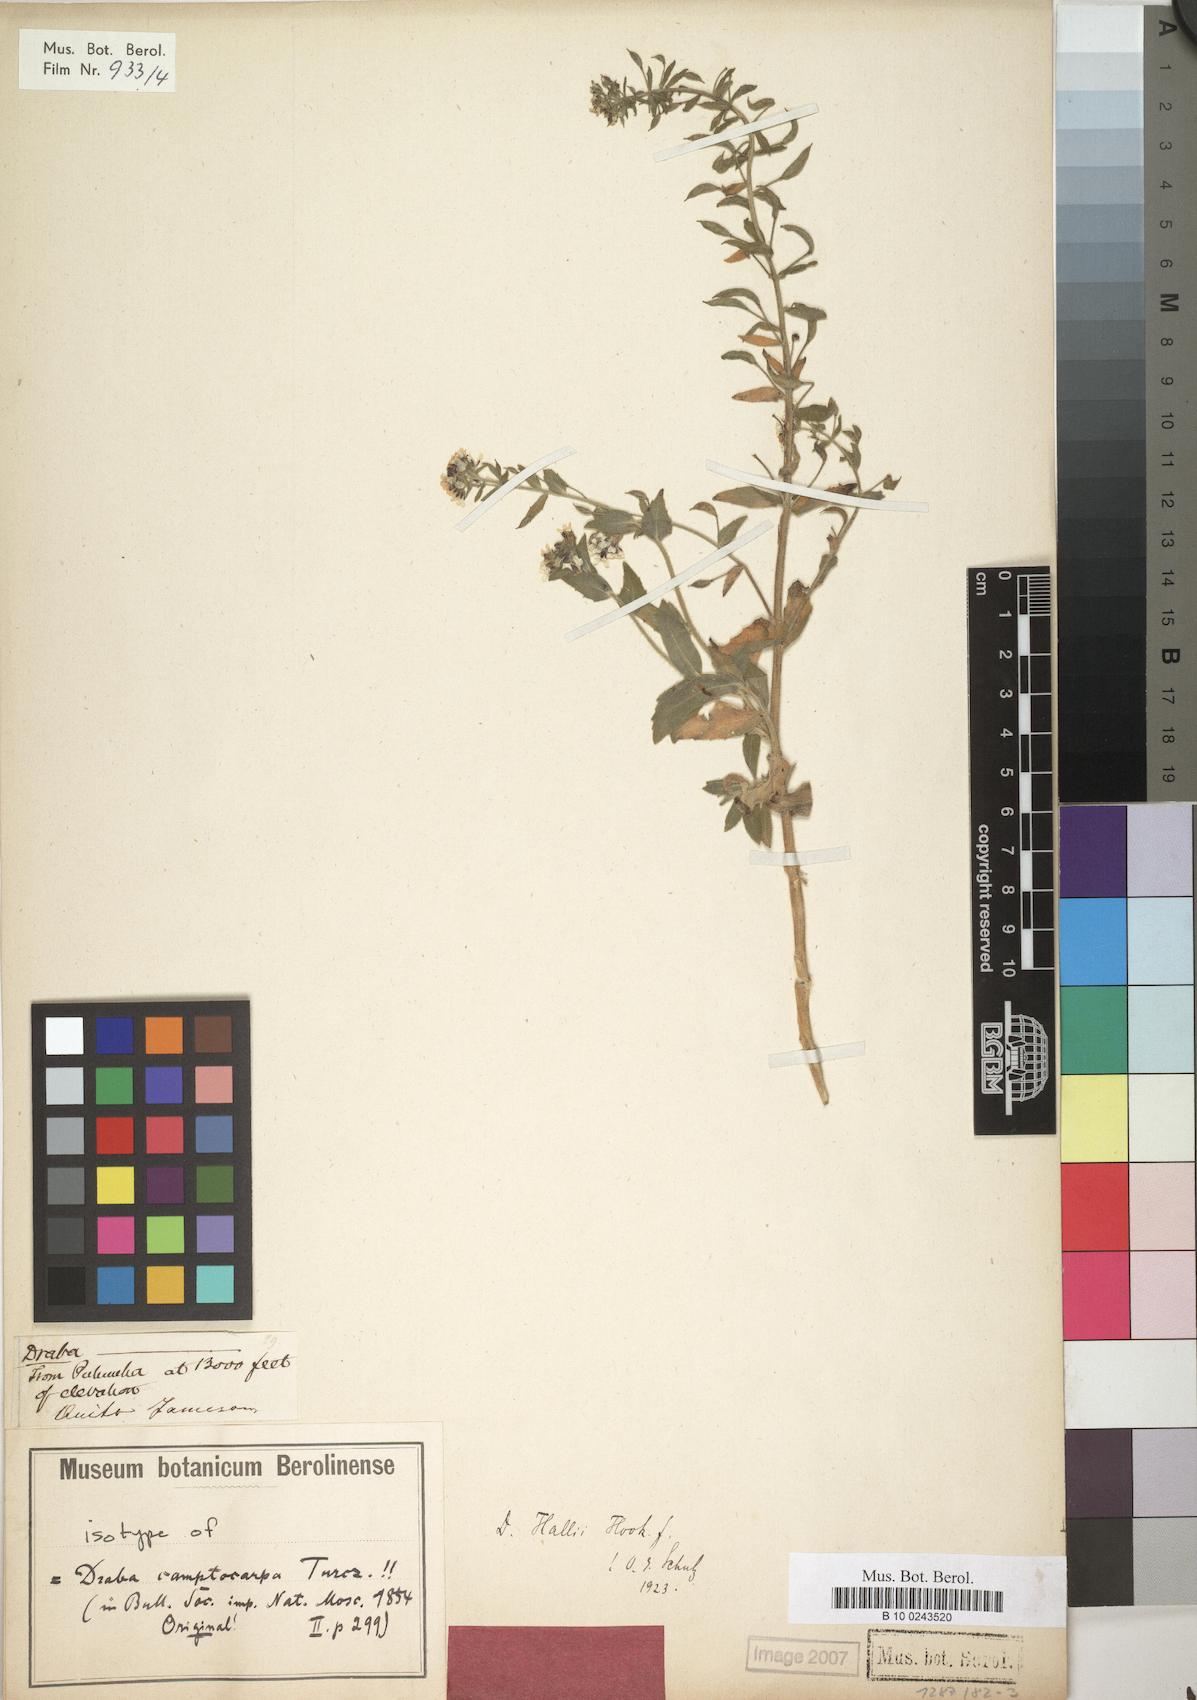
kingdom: Plantae
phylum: Tracheophyta
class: Magnoliopsida
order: Brassicales
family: Brassicaceae
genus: Draba
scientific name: Draba hallii
